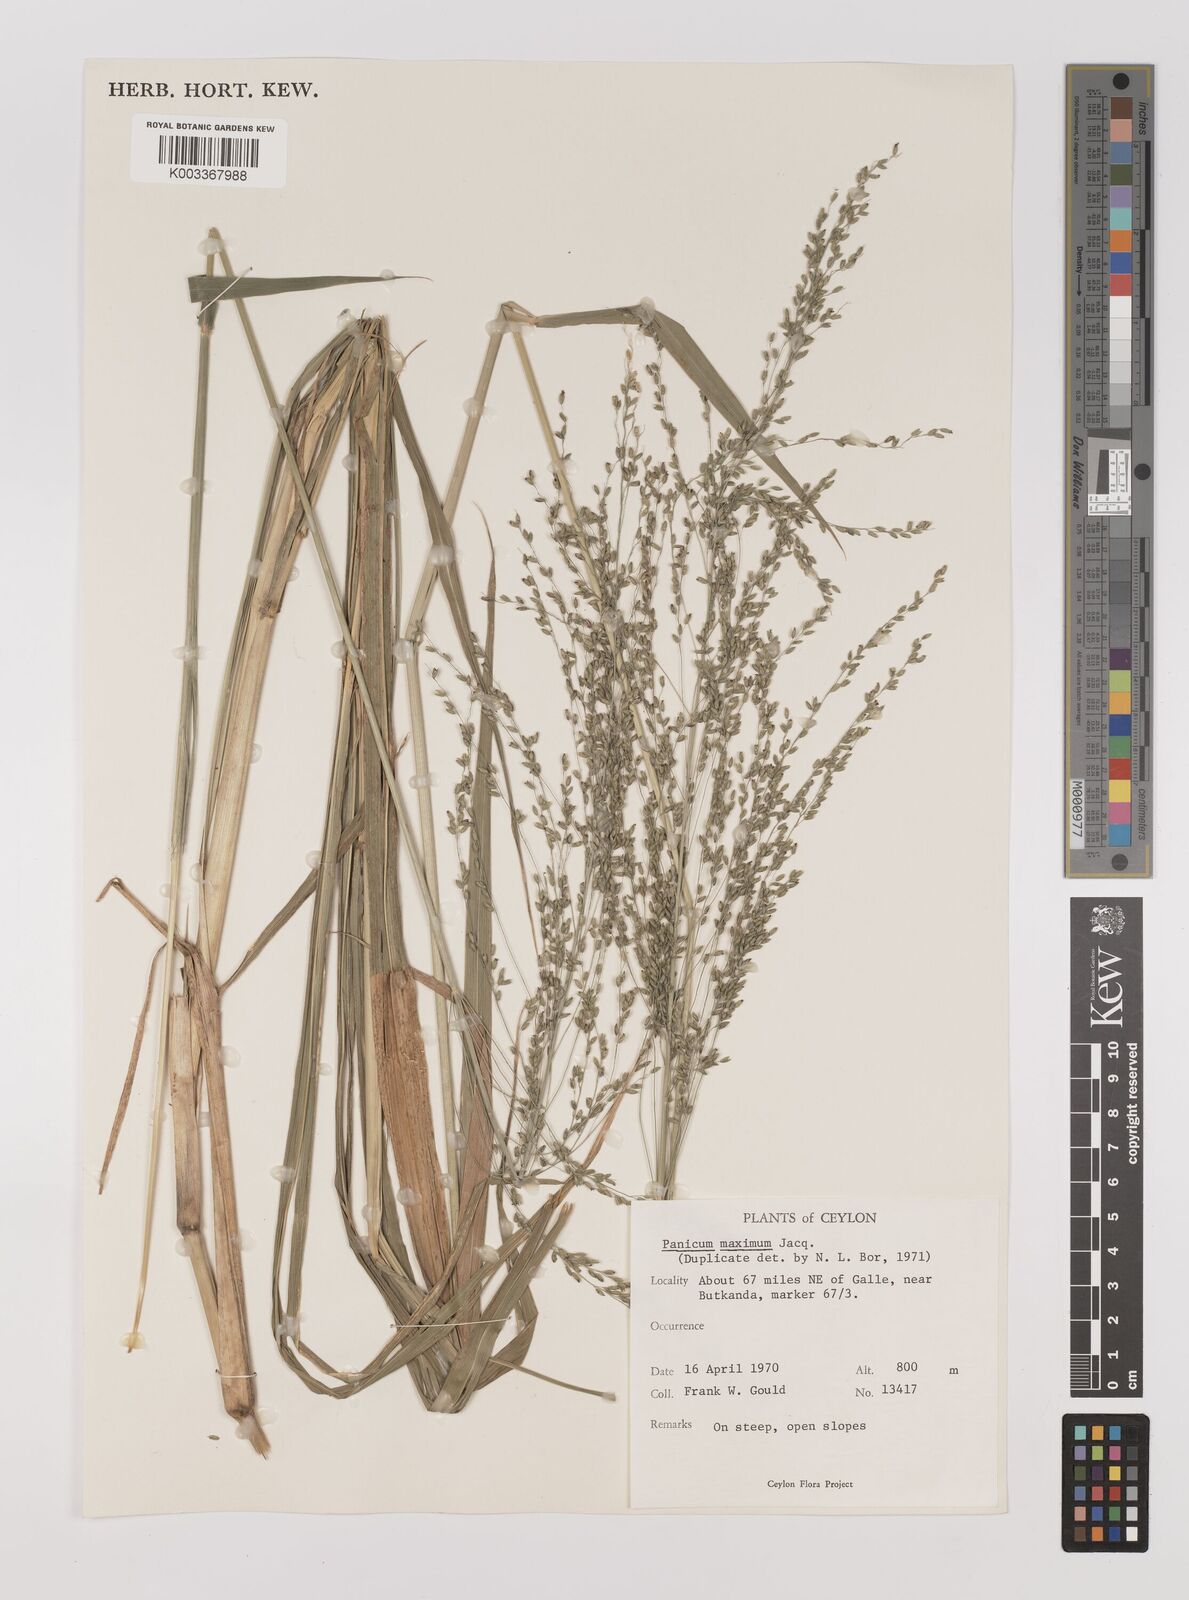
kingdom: Plantae
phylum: Tracheophyta
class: Liliopsida
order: Poales
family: Poaceae
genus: Megathyrsus
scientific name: Megathyrsus maximus
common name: Guineagrass
